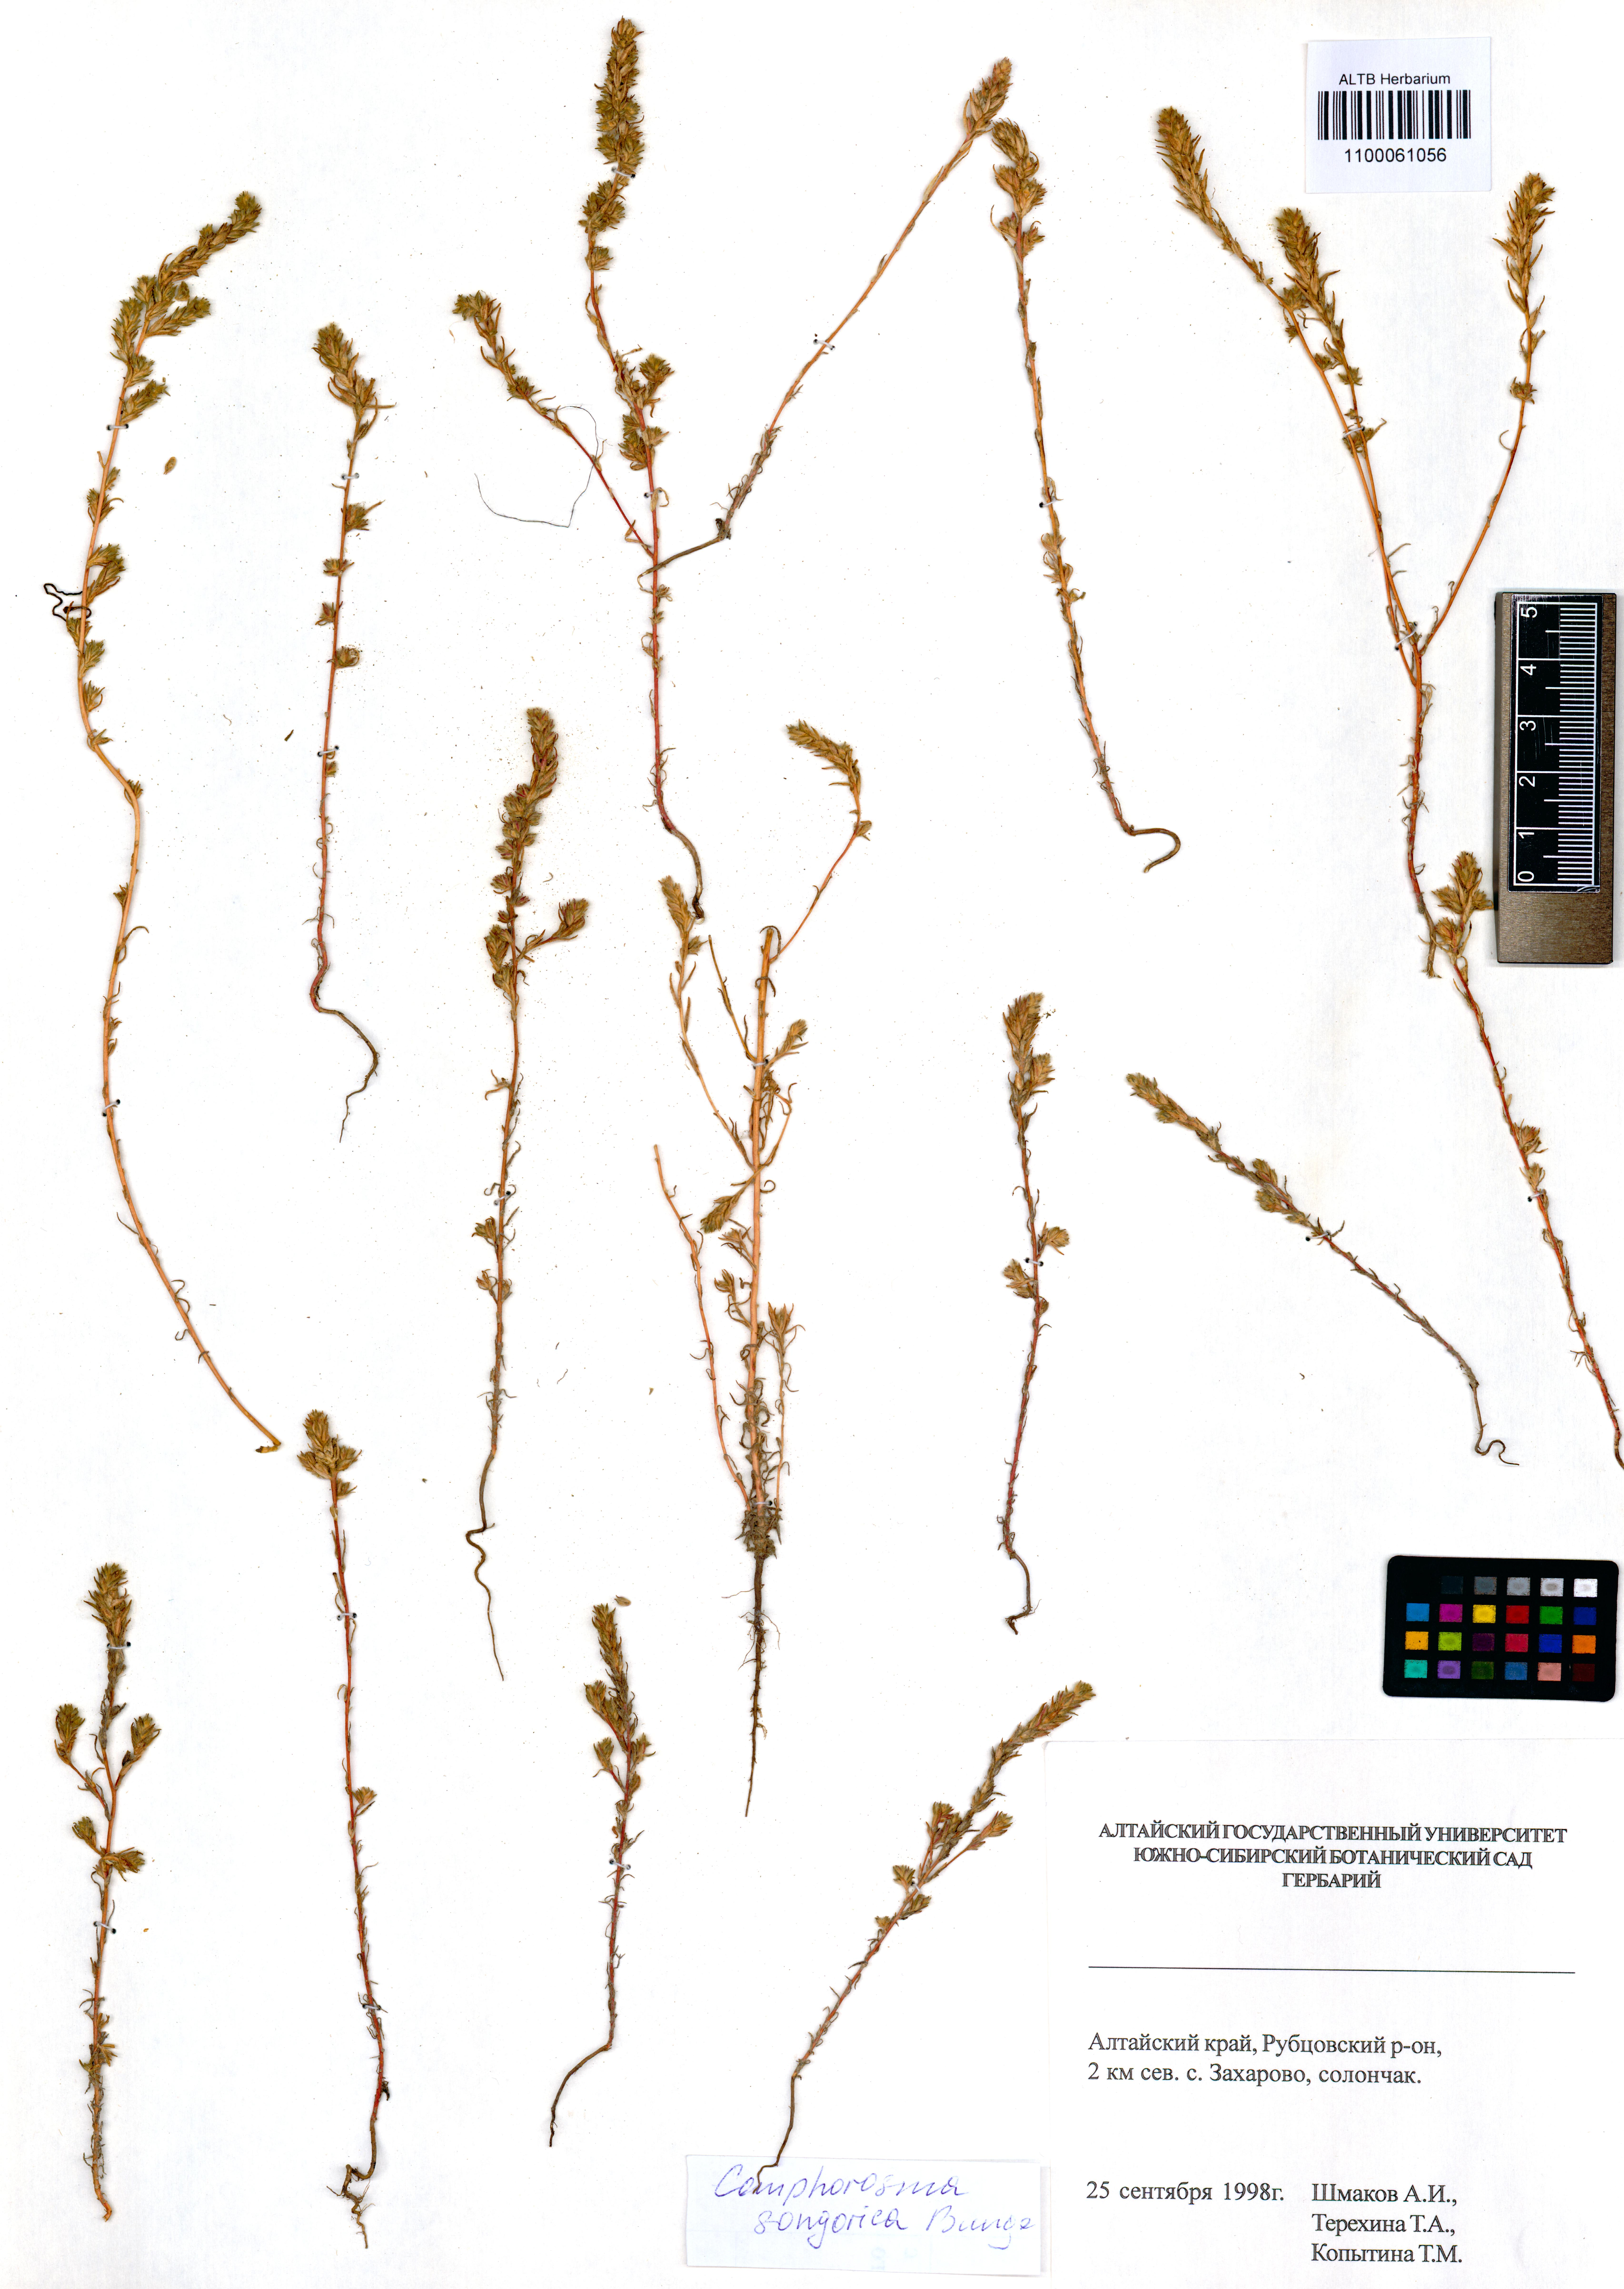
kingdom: Plantae
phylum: Tracheophyta
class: Magnoliopsida
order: Caryophyllales
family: Amaranthaceae
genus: Camphorosma
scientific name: Camphorosma songorica
